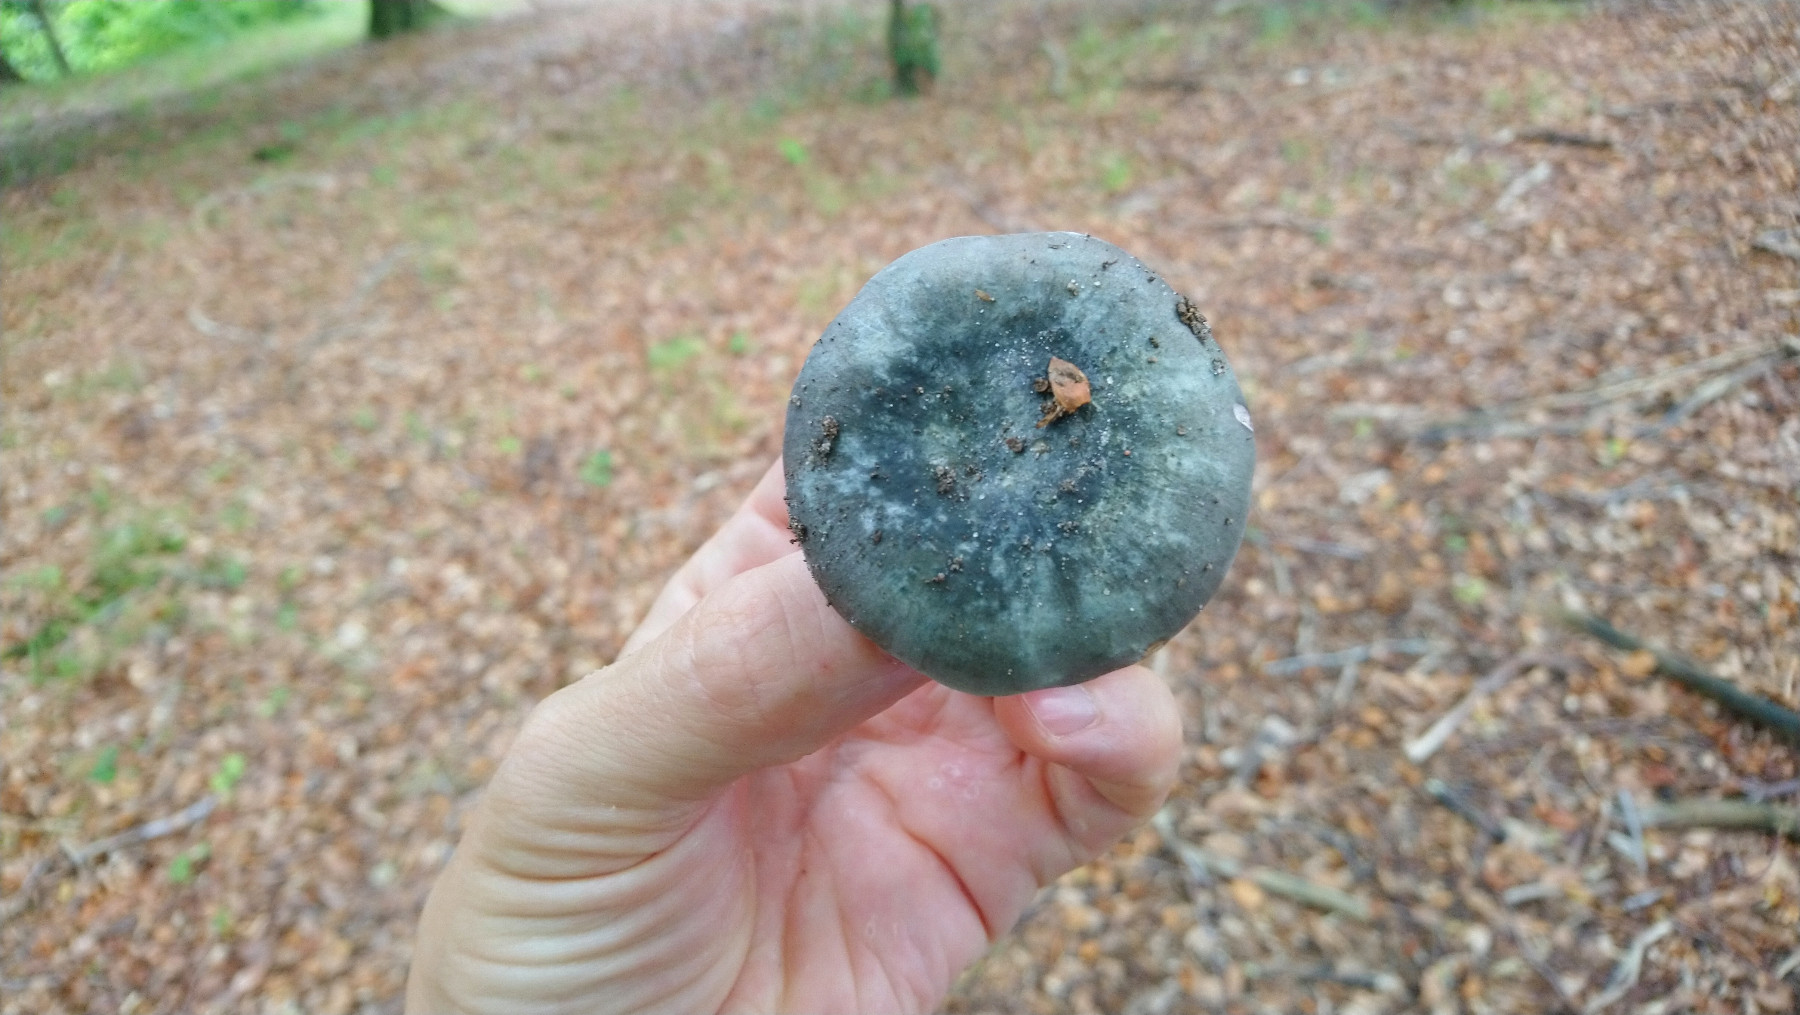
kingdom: Fungi
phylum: Basidiomycota
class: Agaricomycetes
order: Russulales
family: Russulaceae
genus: Russula
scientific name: Russula
